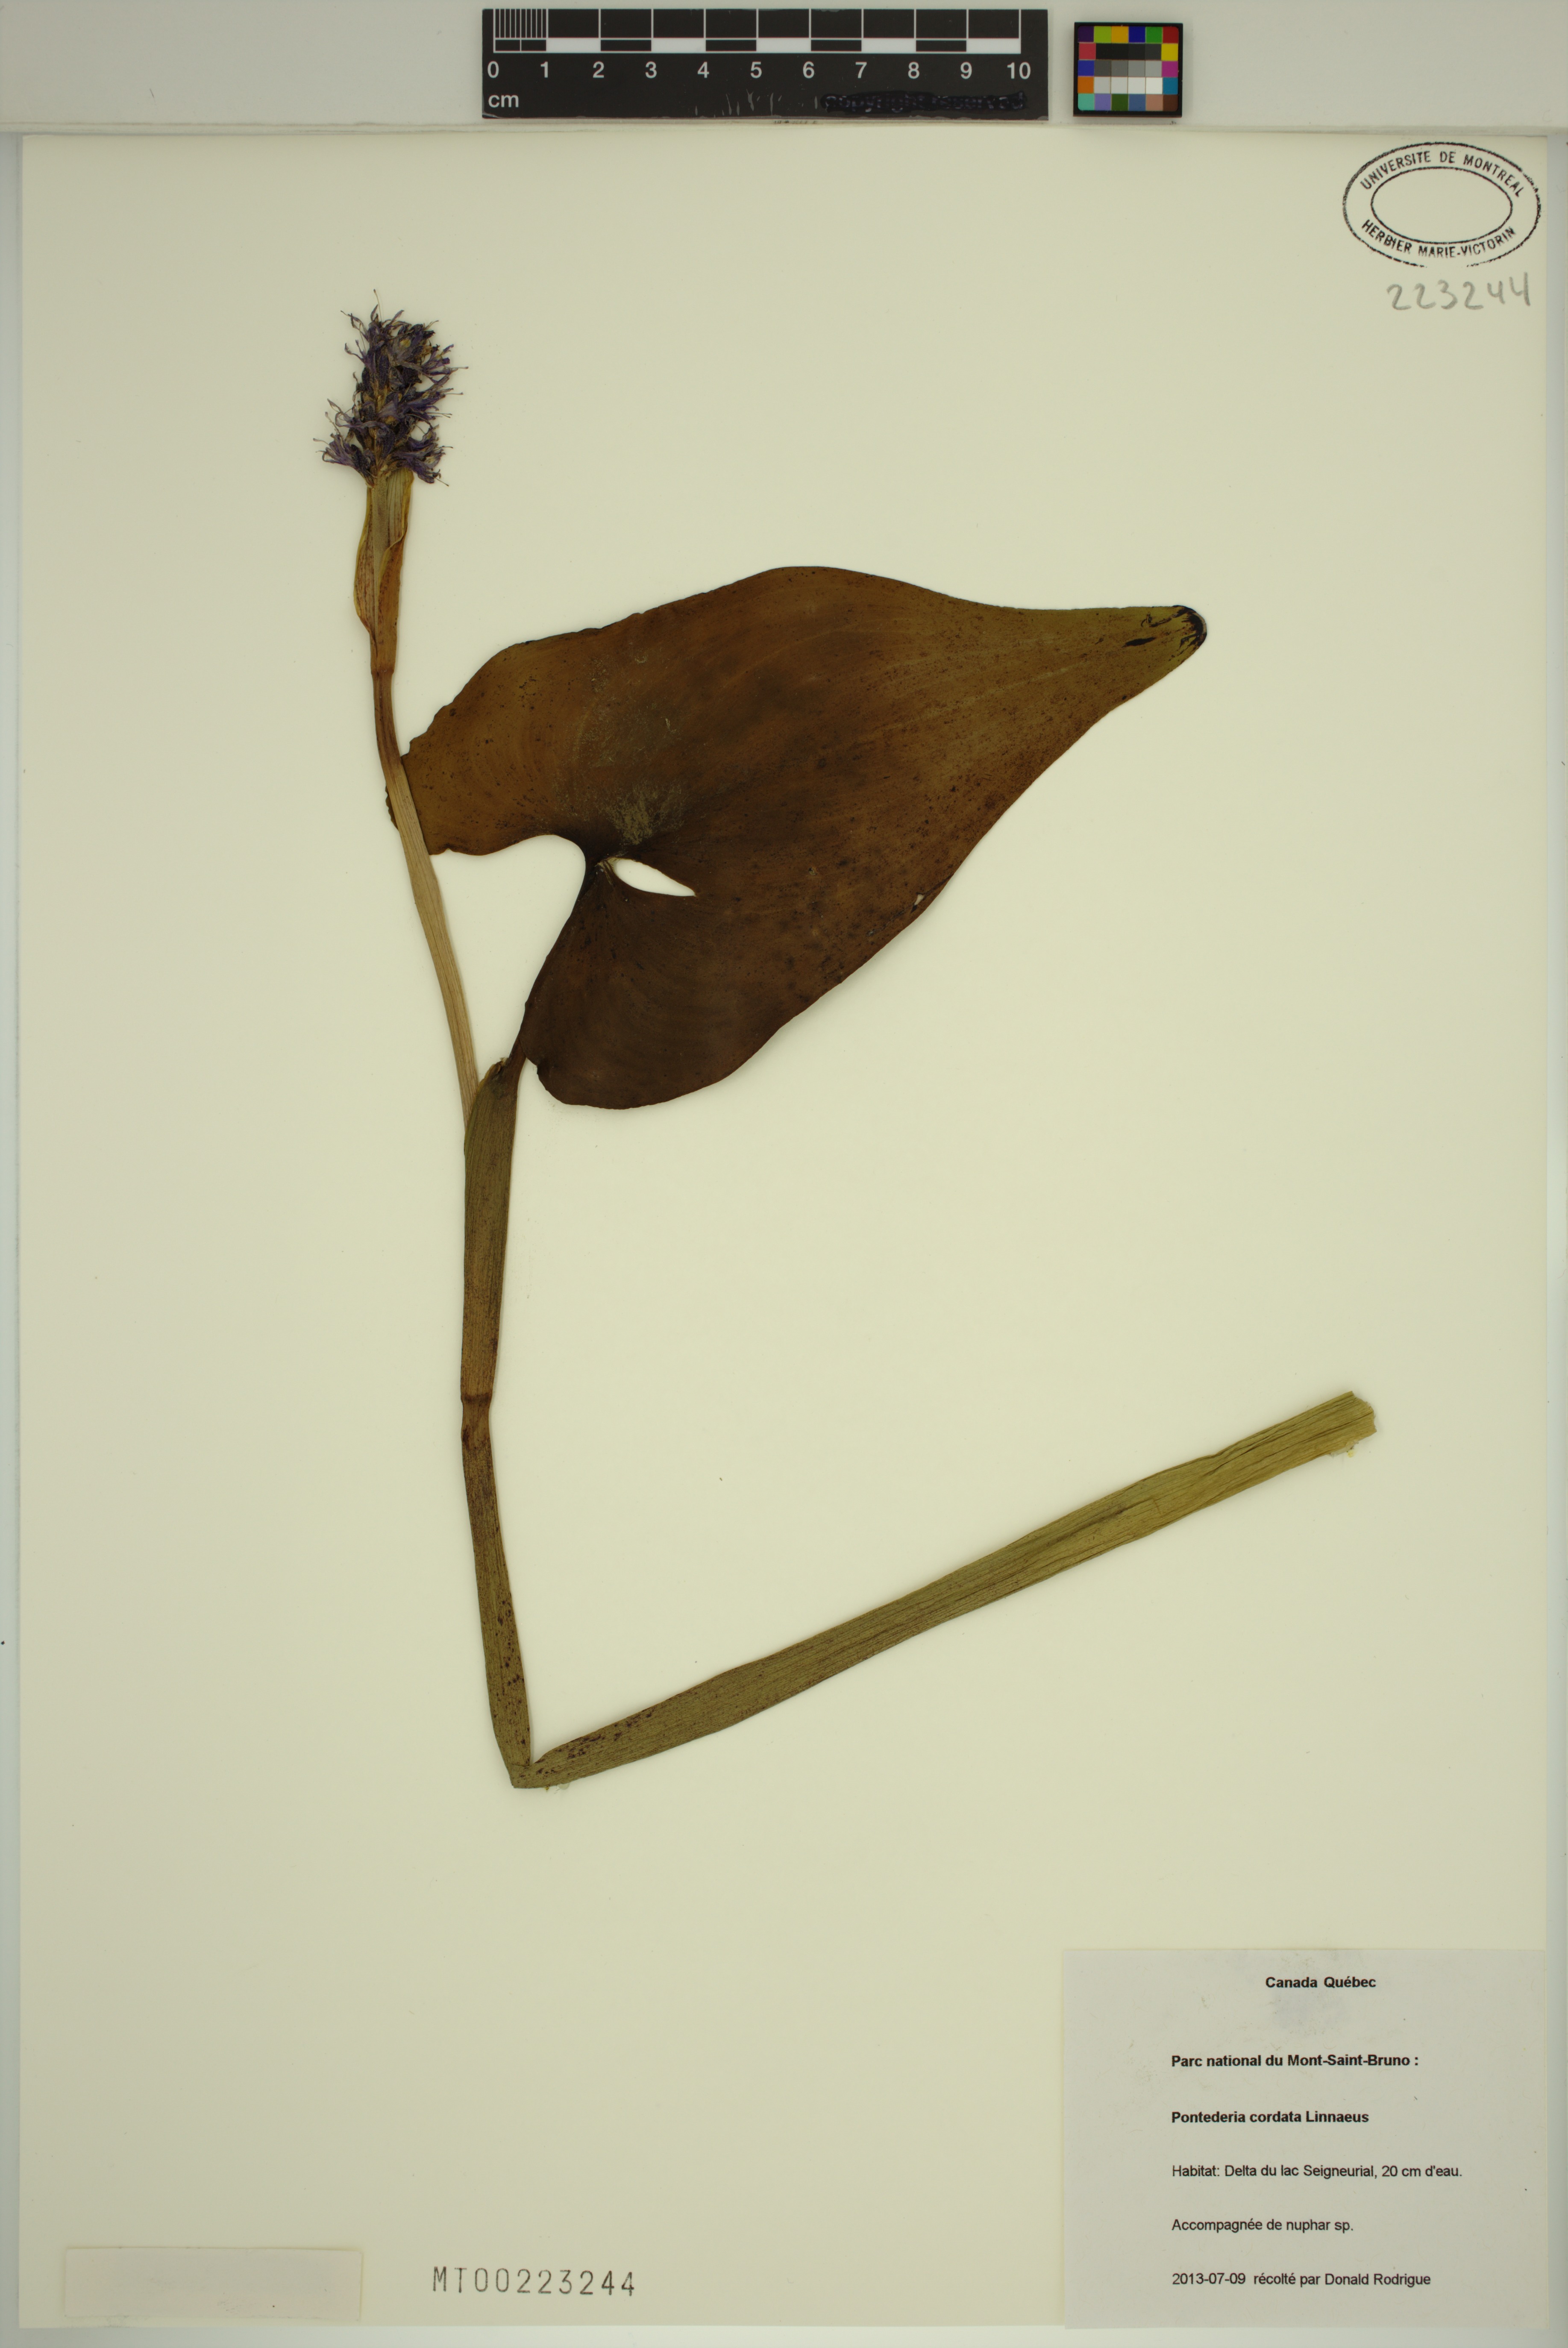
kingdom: Plantae
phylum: Tracheophyta
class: Liliopsida
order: Commelinales
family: Pontederiaceae
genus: Pontederia
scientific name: Pontederia cordata
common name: Pickerelweed
